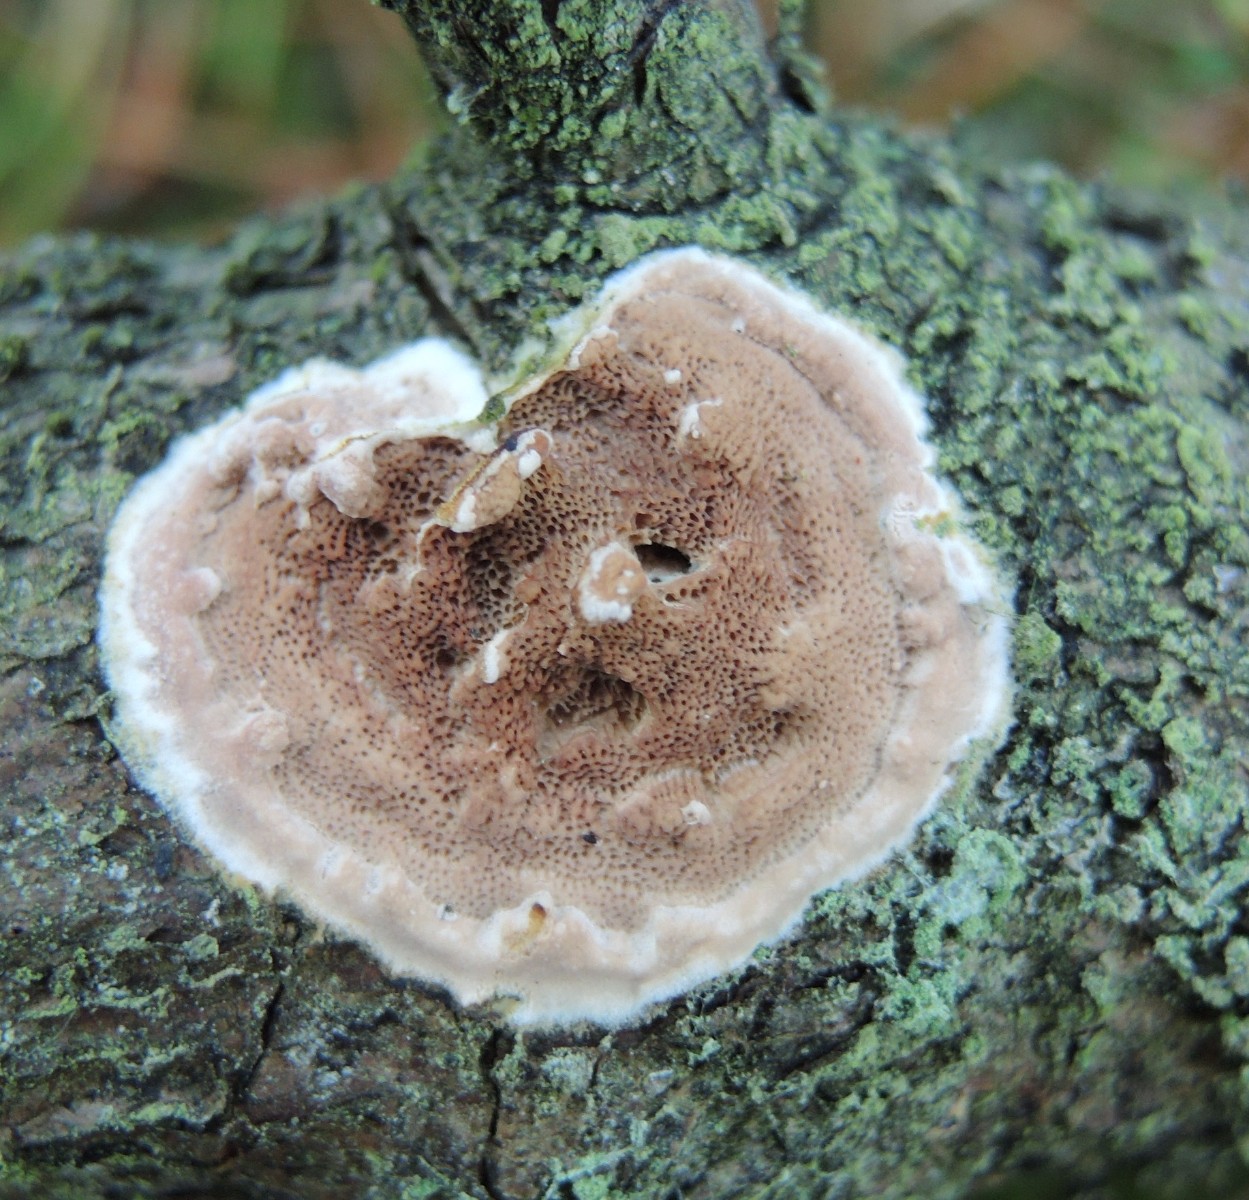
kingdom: Fungi
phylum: Basidiomycota
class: Agaricomycetes
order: Polyporales
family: Irpicaceae
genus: Meruliopsis
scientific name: Meruliopsis taxicola
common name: purpurbrun foldporesvamp
